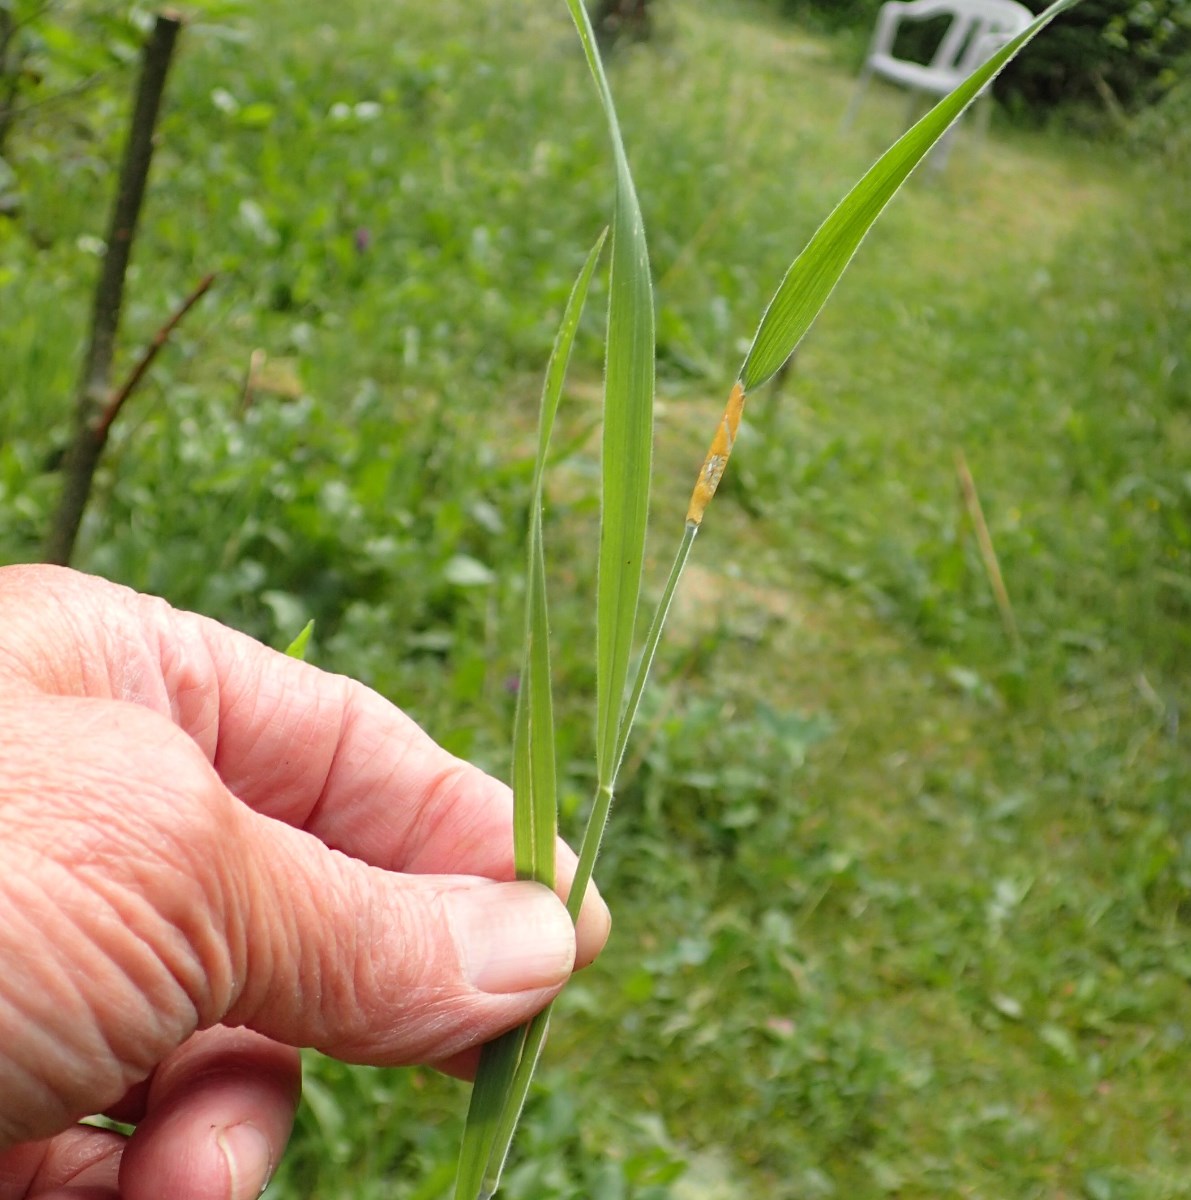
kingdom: Fungi
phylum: Ascomycota
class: Sordariomycetes
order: Hypocreales
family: Clavicipitaceae
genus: Epichloe
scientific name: Epichloe clarkii
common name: fløjlsgræs-kernerør
